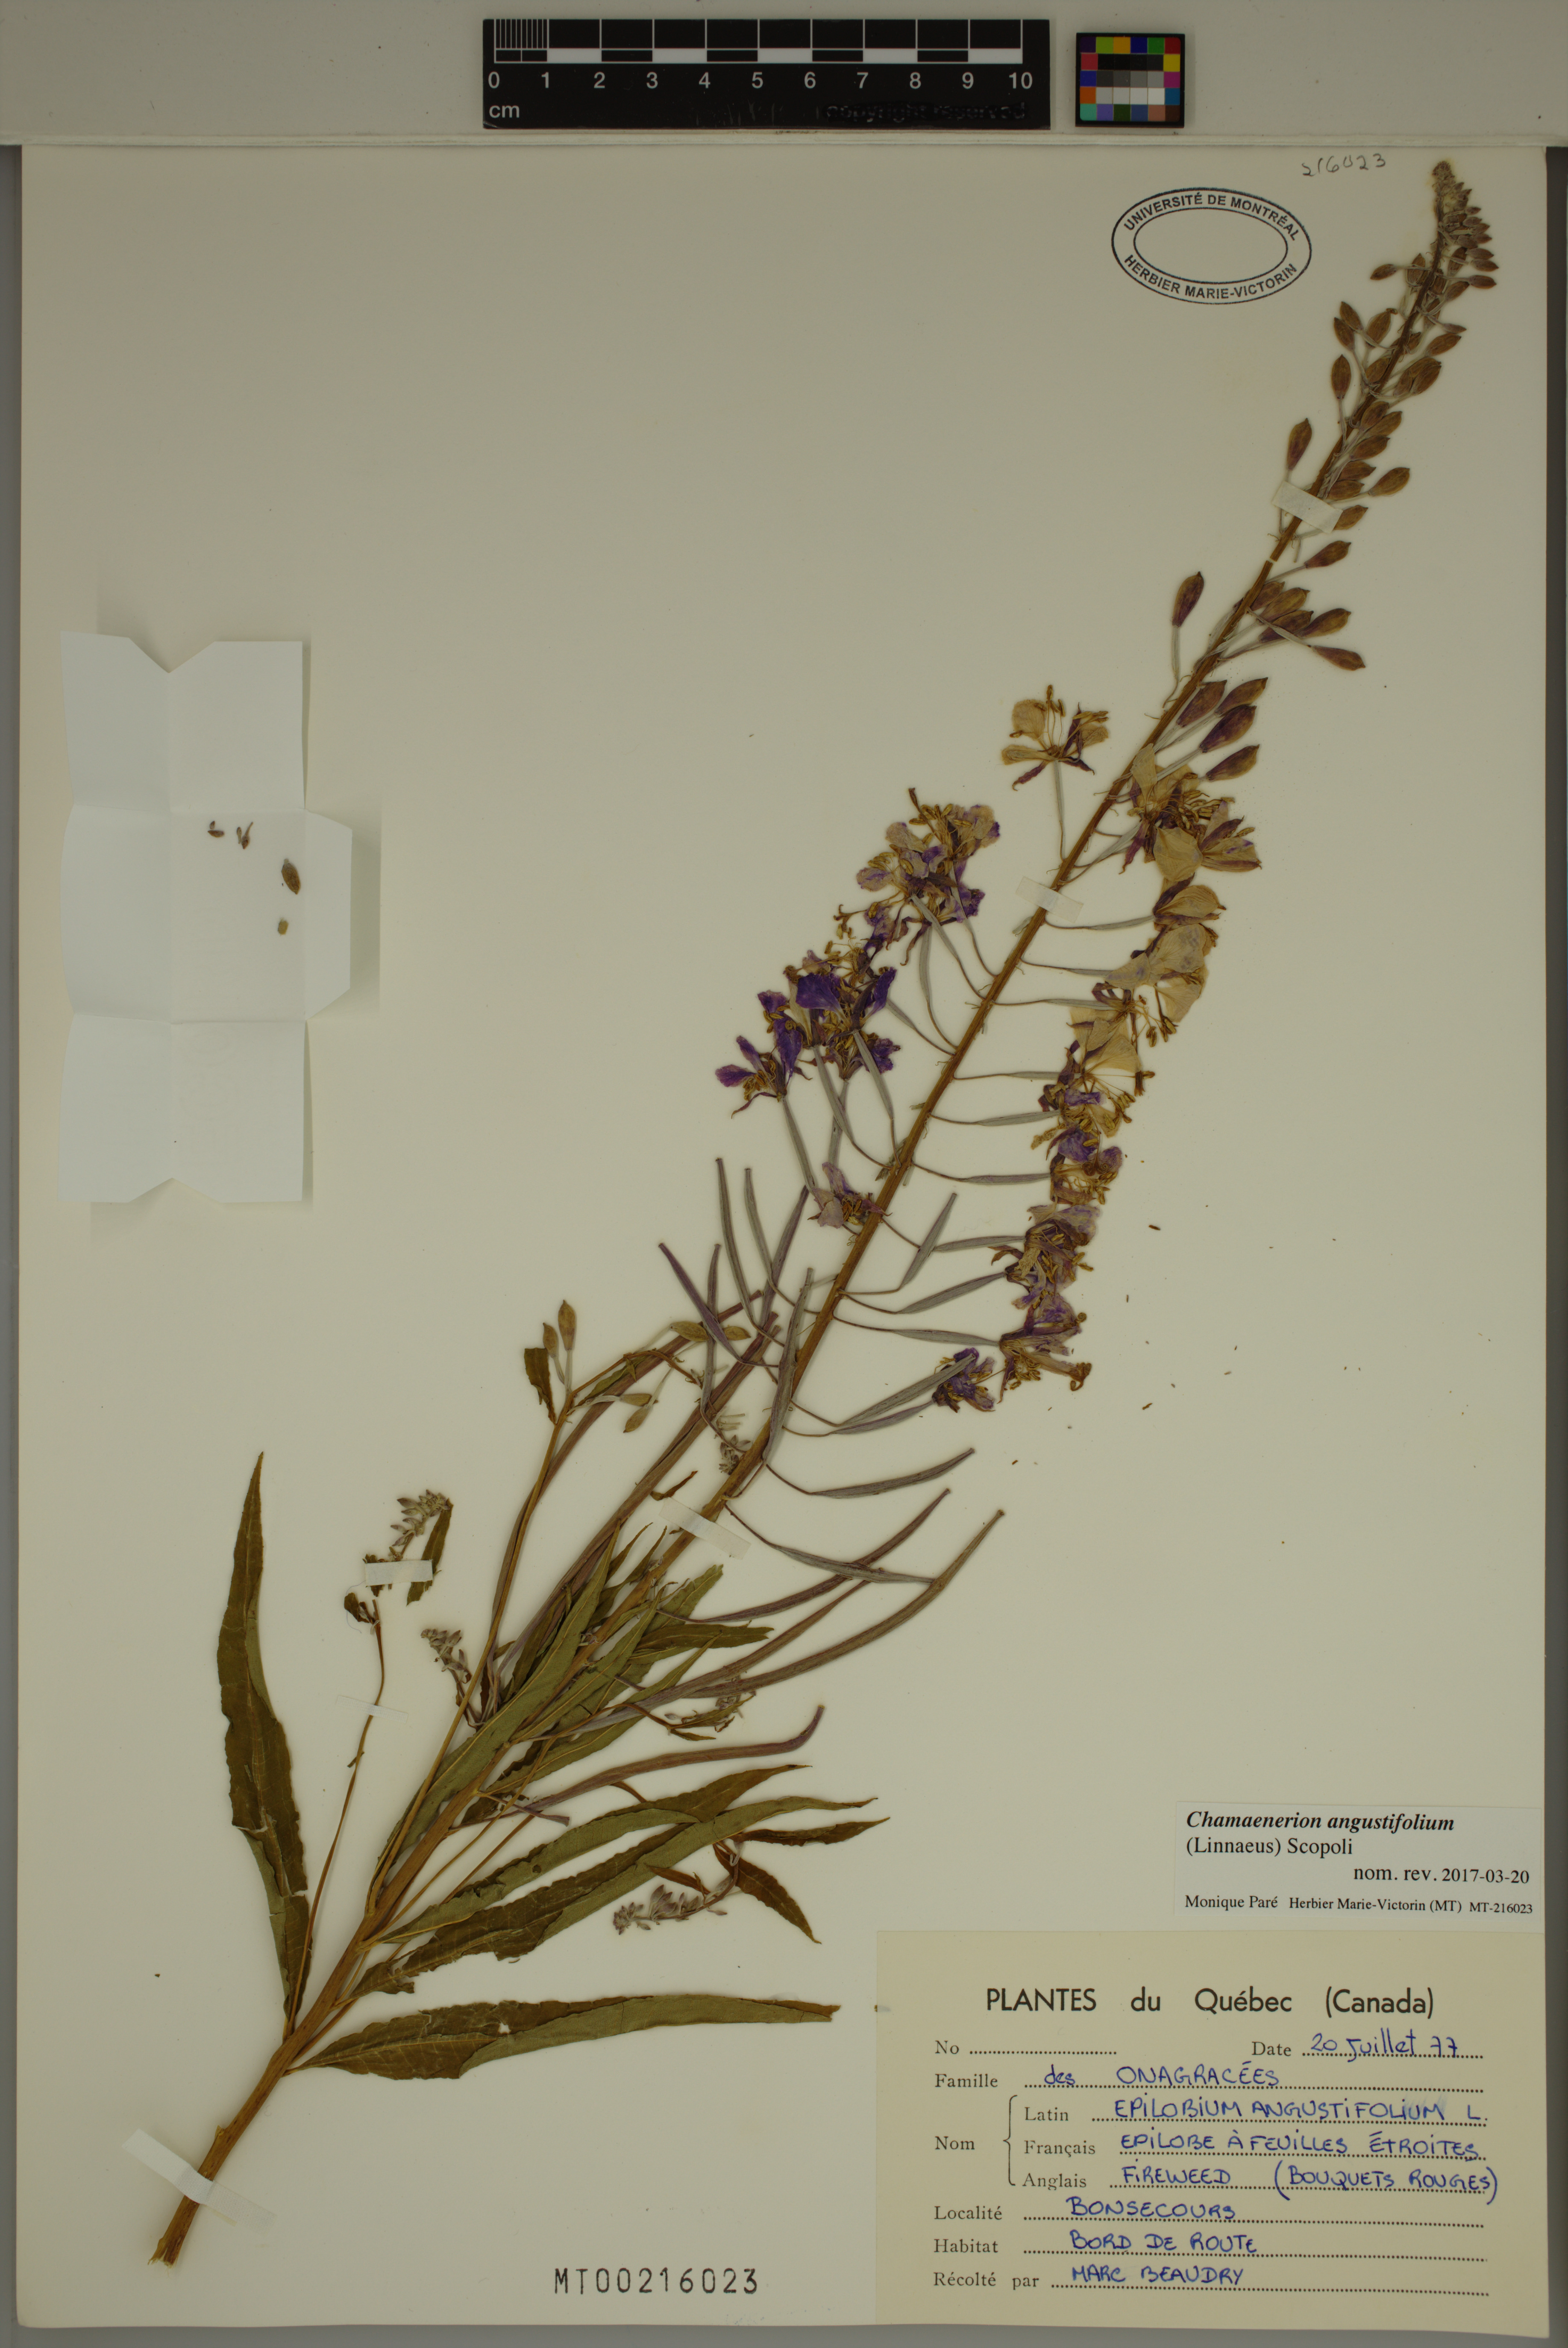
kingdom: Plantae
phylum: Tracheophyta
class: Magnoliopsida
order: Myrtales
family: Onagraceae
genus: Chamaenerion
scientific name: Chamaenerion angustifolium
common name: Fireweed
